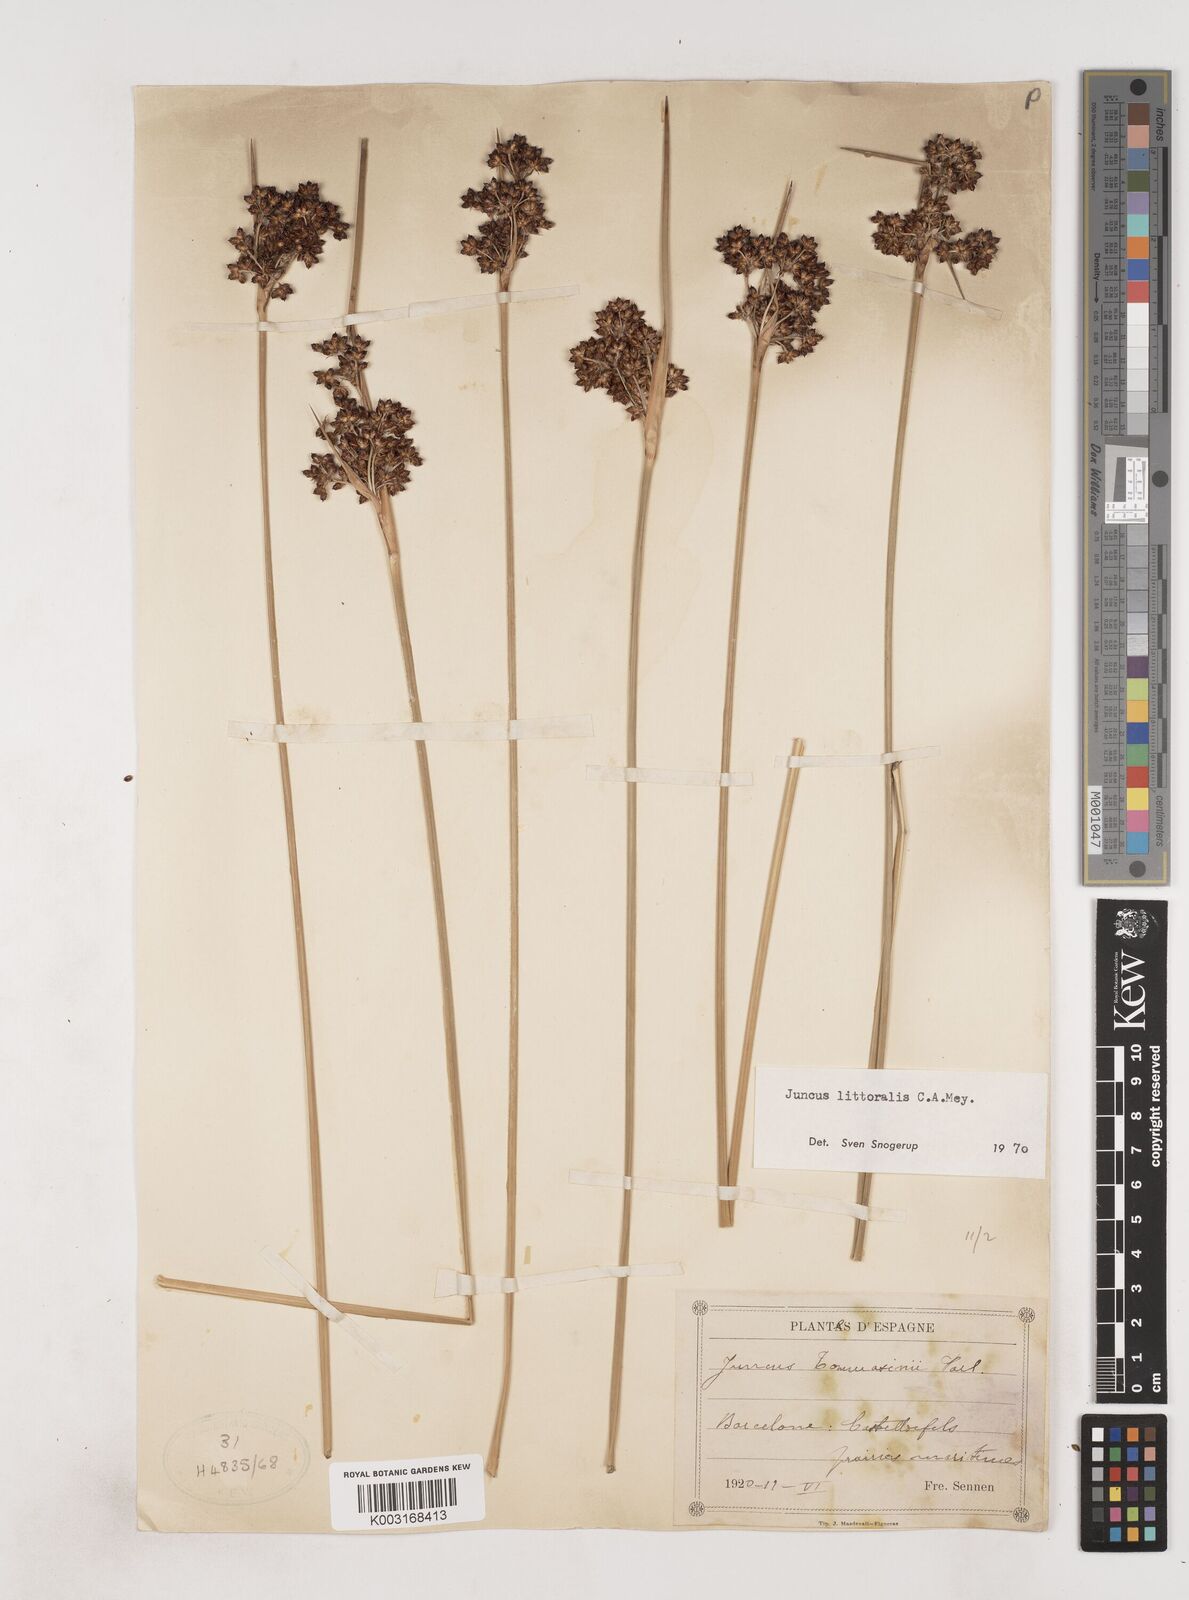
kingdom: Plantae
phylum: Tracheophyta
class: Liliopsida
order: Poales
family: Juncaceae
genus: Juncus
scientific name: Juncus
